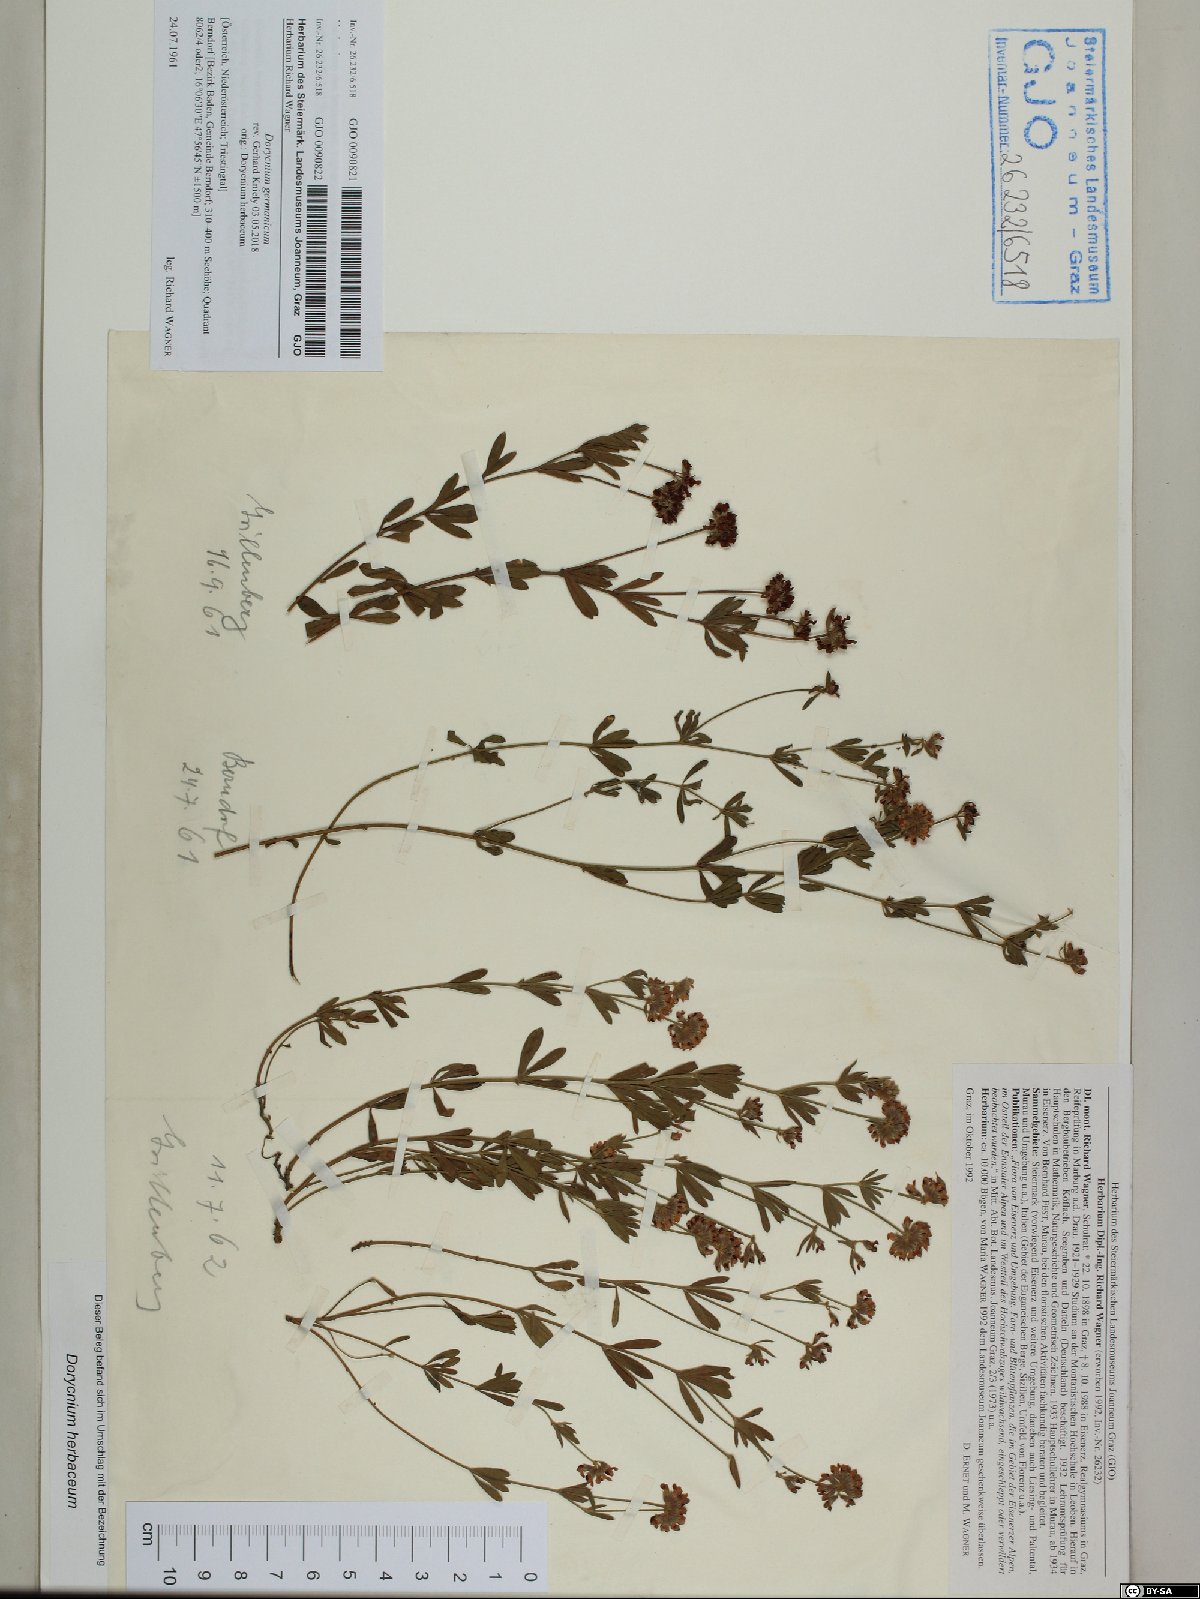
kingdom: Plantae
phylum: Tracheophyta
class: Magnoliopsida
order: Fabales
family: Fabaceae
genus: Lotus
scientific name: Lotus germanicus
